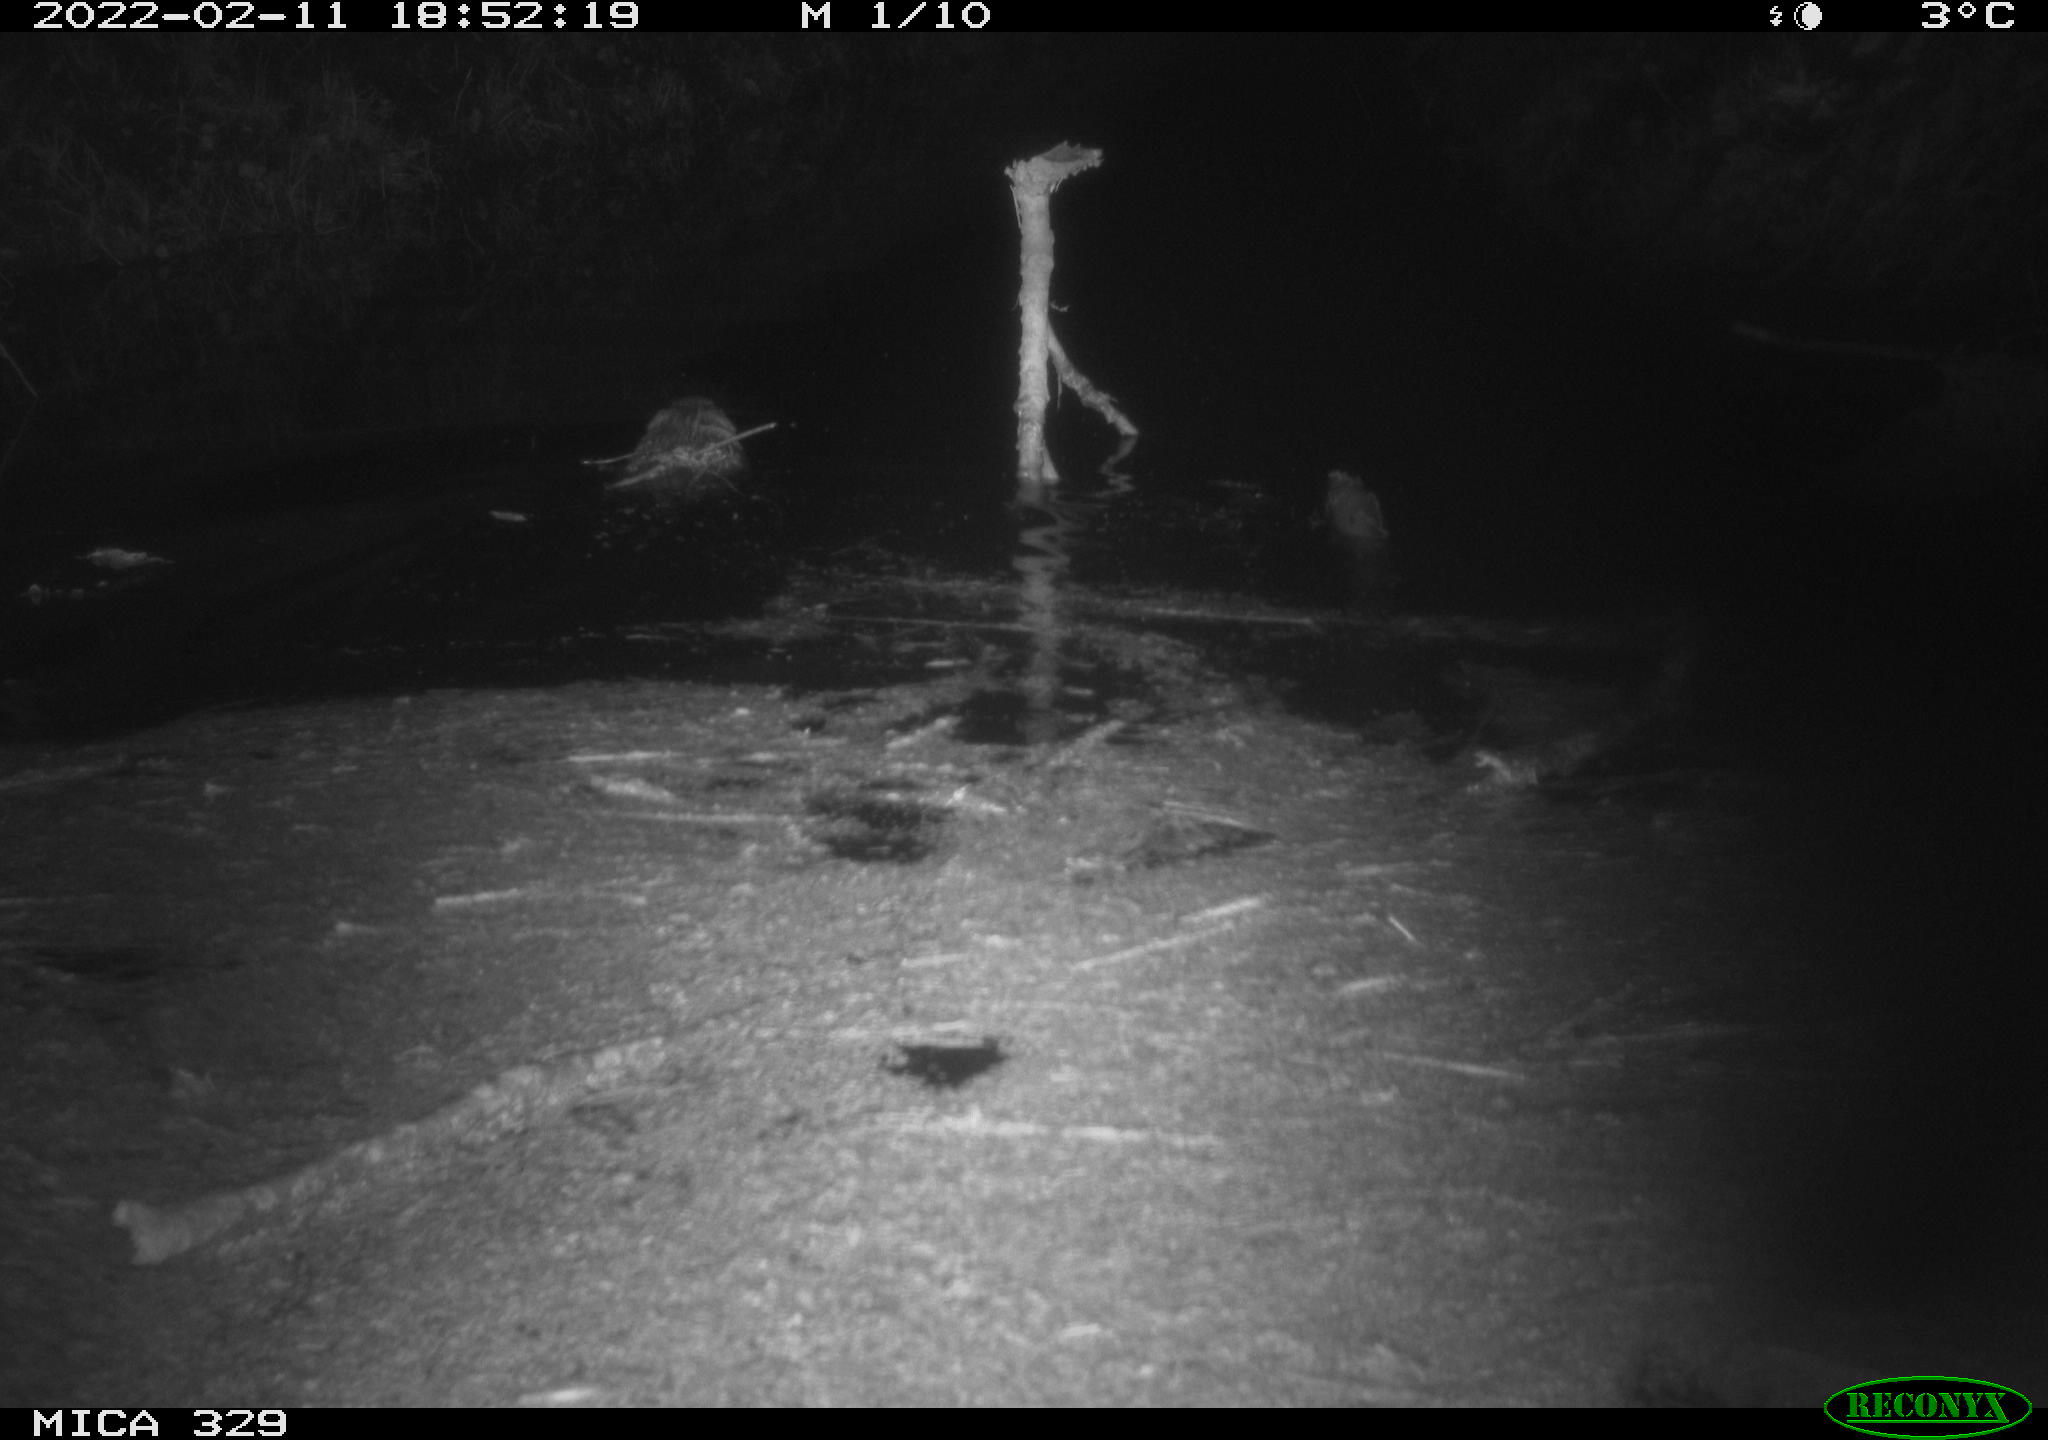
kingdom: Animalia
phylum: Chordata
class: Mammalia
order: Rodentia
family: Cricetidae
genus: Ondatra
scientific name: Ondatra zibethicus
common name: Muskrat
